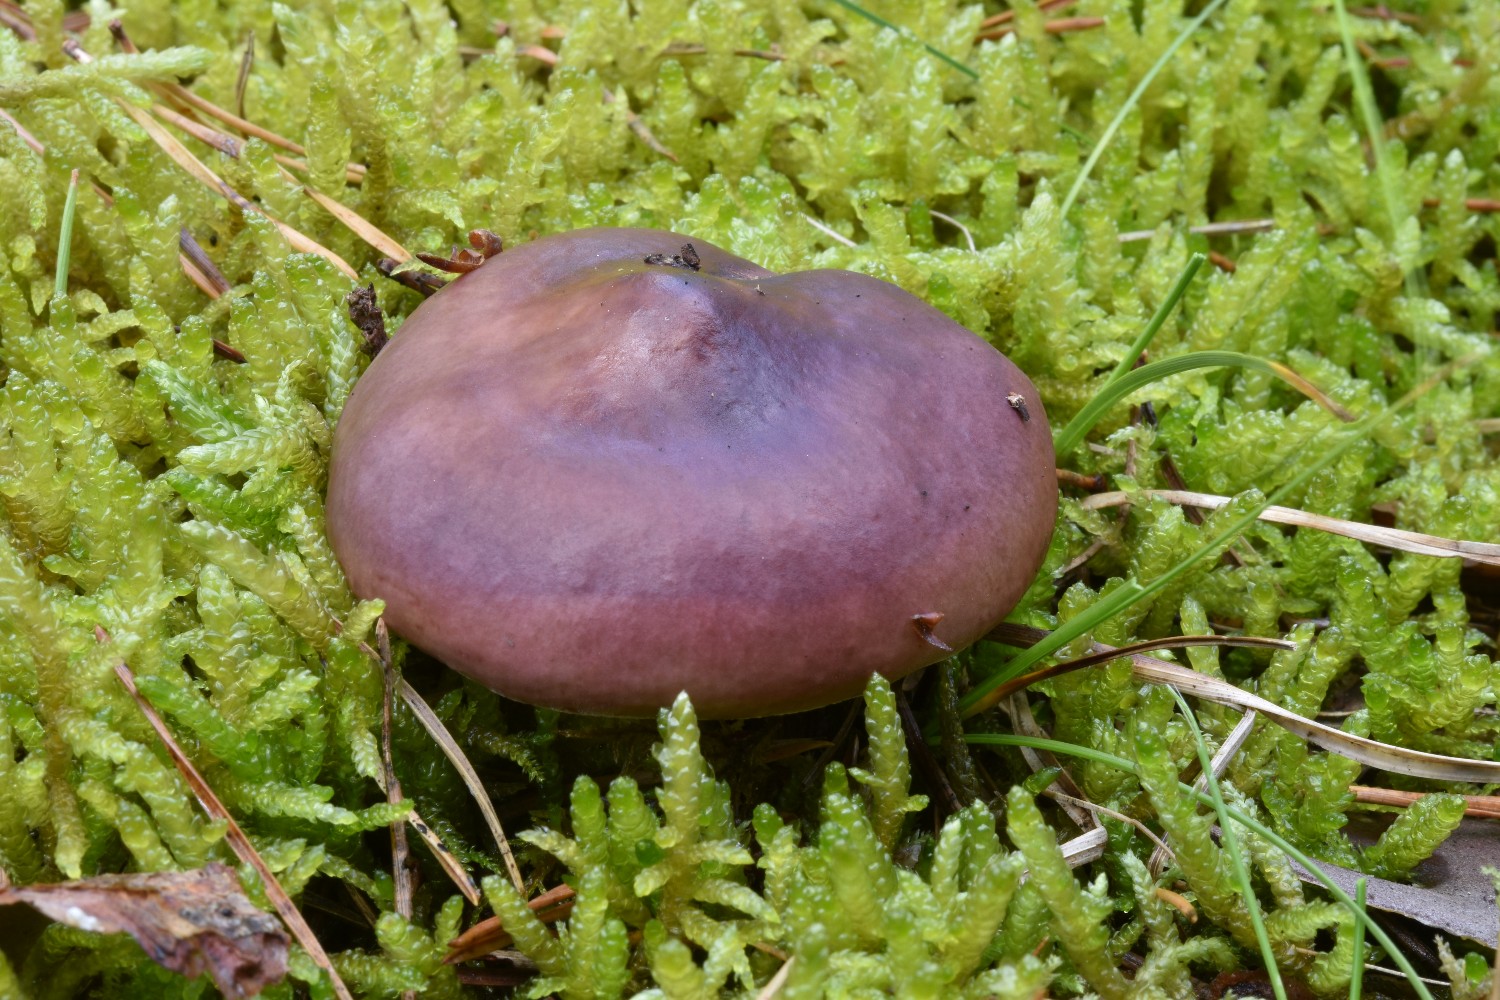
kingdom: Fungi
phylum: Basidiomycota
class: Agaricomycetes
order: Russulales
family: Russulaceae
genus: Russula
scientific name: Russula caerulea
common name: puklet skørhat
